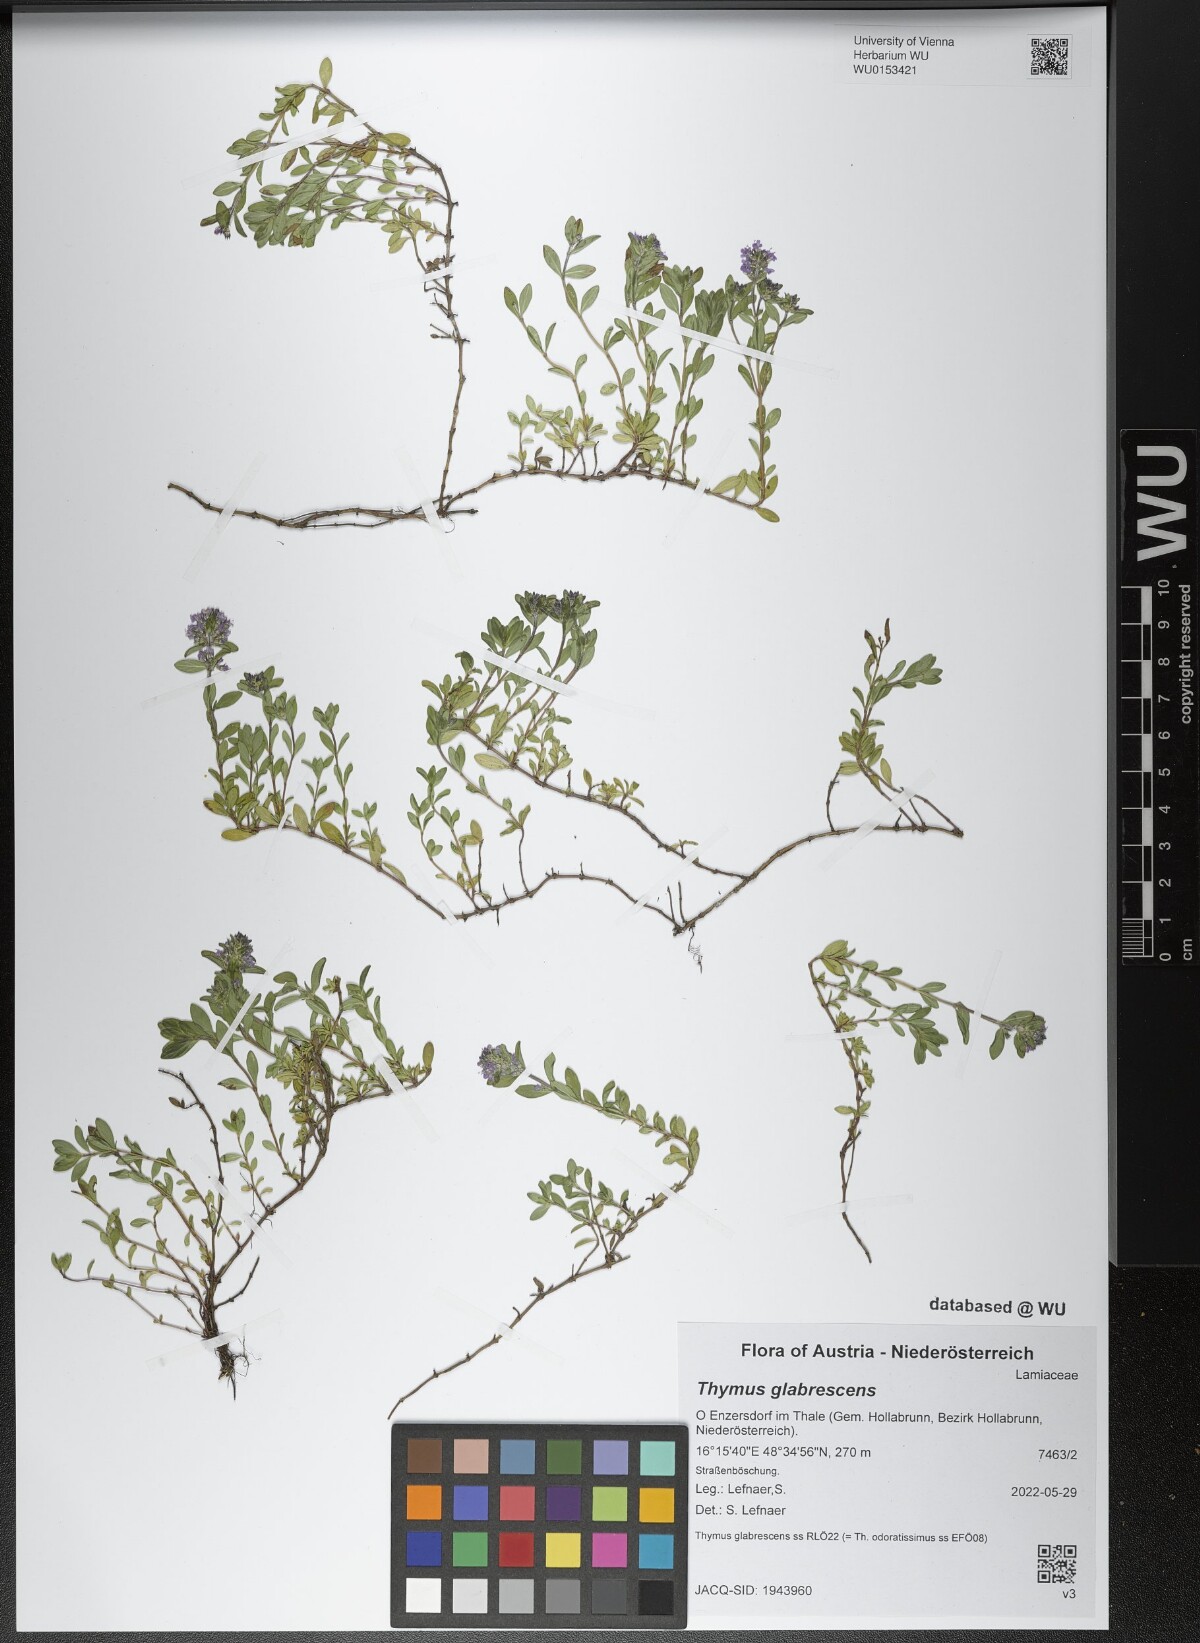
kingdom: Plantae
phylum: Tracheophyta
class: Magnoliopsida
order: Lamiales
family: Lamiaceae
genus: Thymus
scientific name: Thymus odoratissimus
